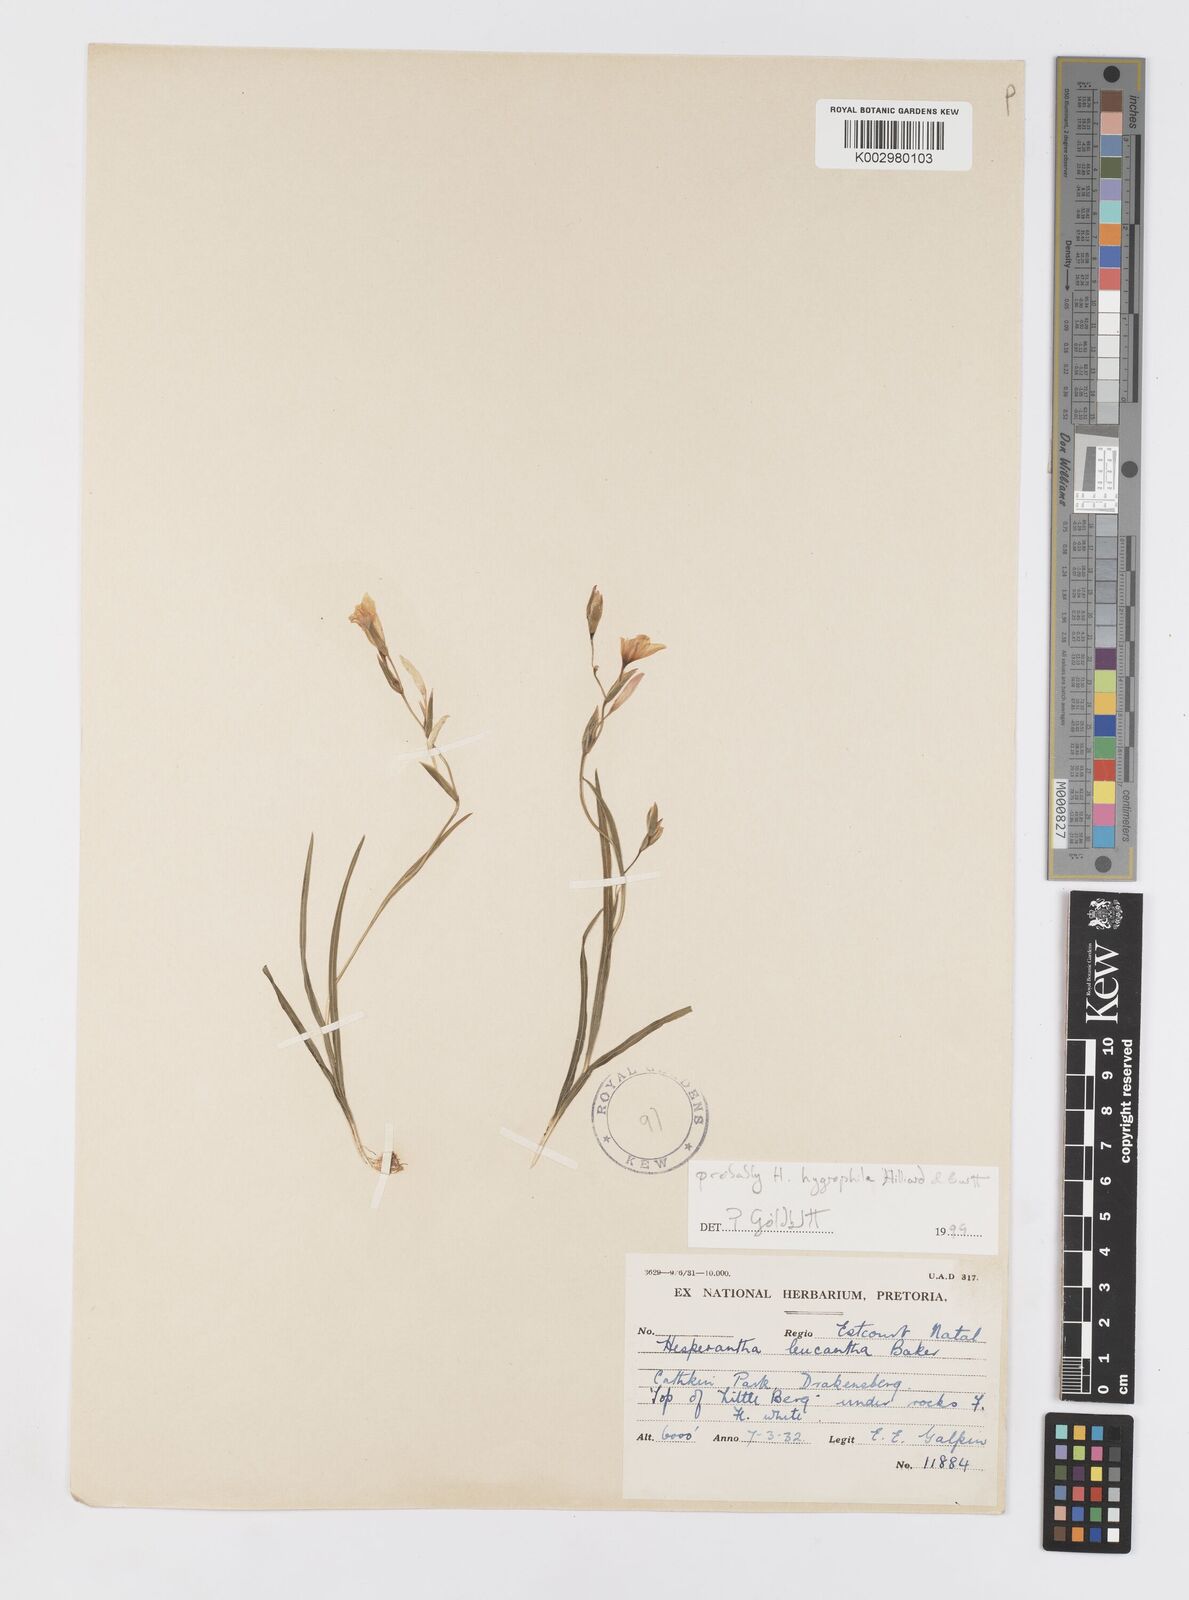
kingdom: Plantae
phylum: Tracheophyta
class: Liliopsida
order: Asparagales
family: Iridaceae
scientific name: Iridaceae
